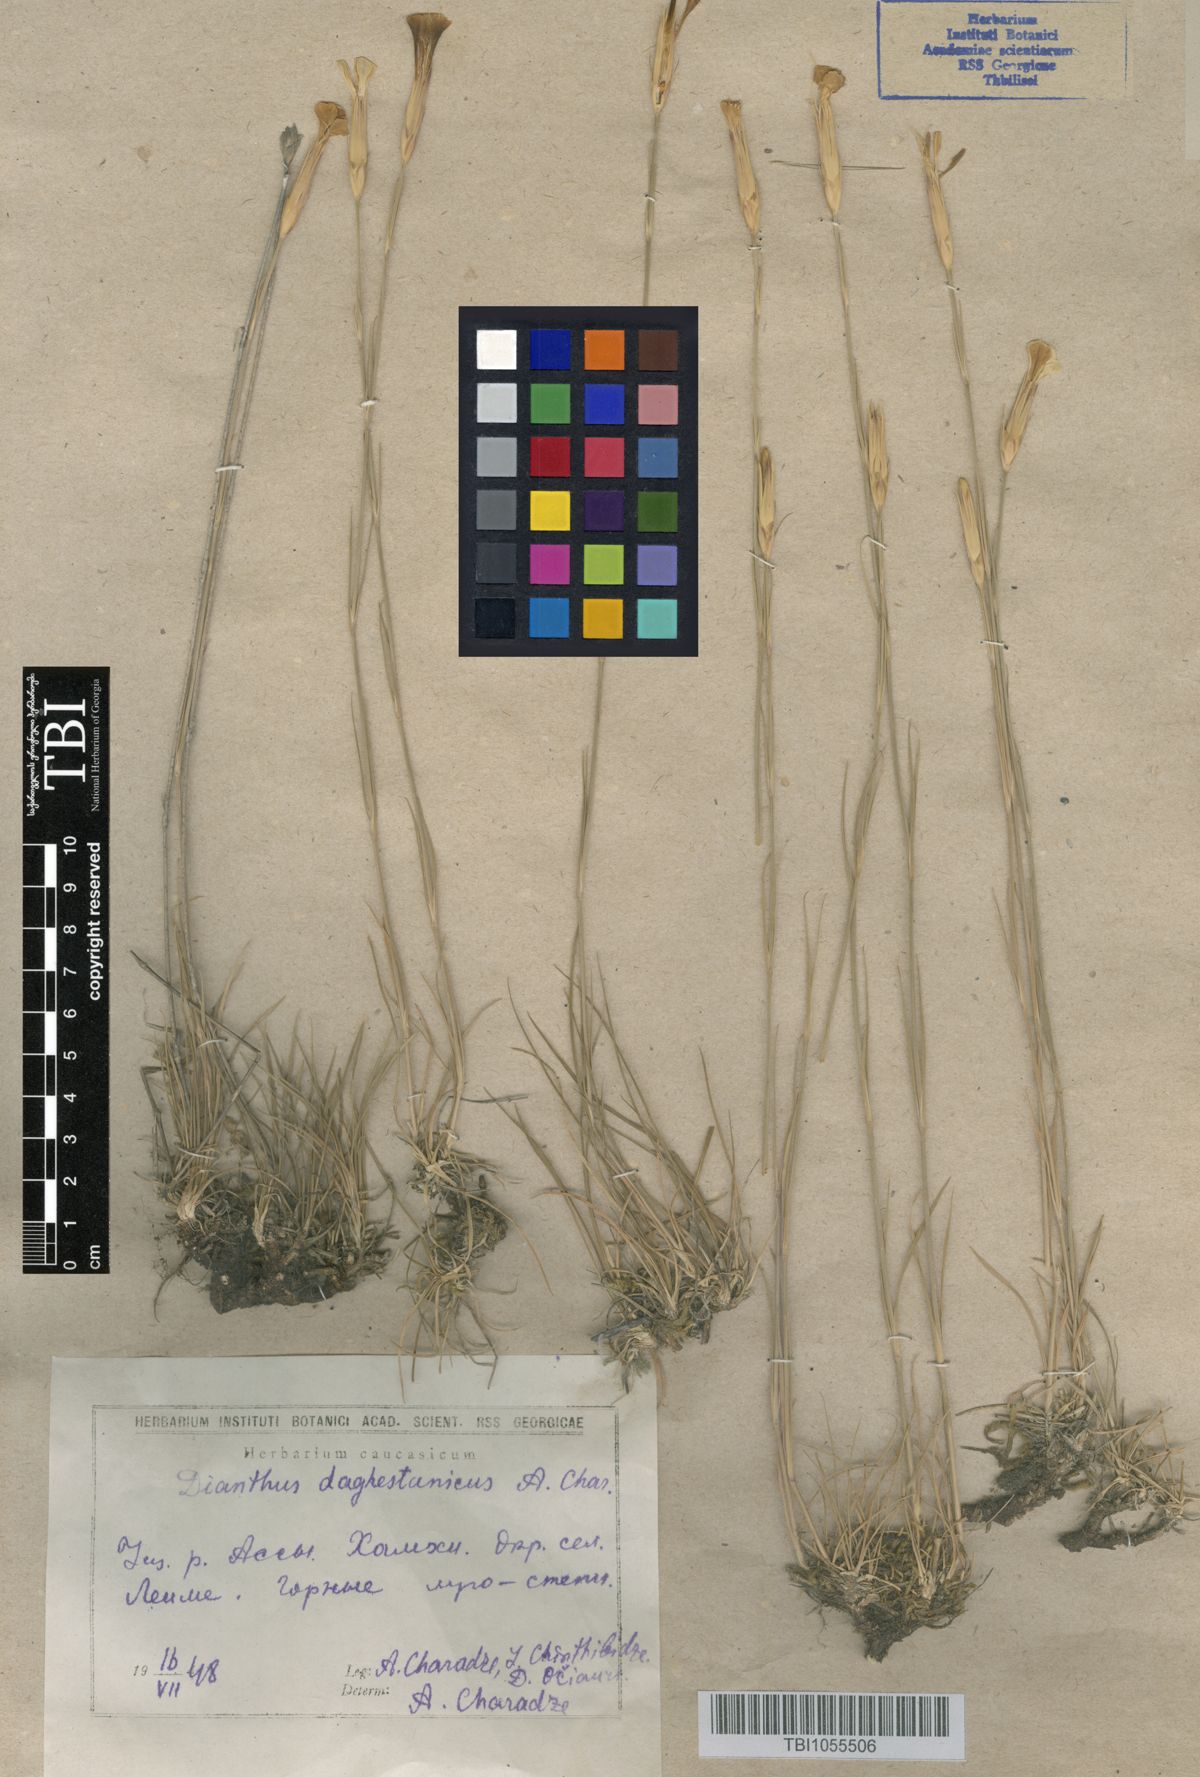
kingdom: Plantae
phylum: Tracheophyta
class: Magnoliopsida
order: Caryophyllales
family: Caryophyllaceae
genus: Dianthus
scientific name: Dianthus daghestanicus
